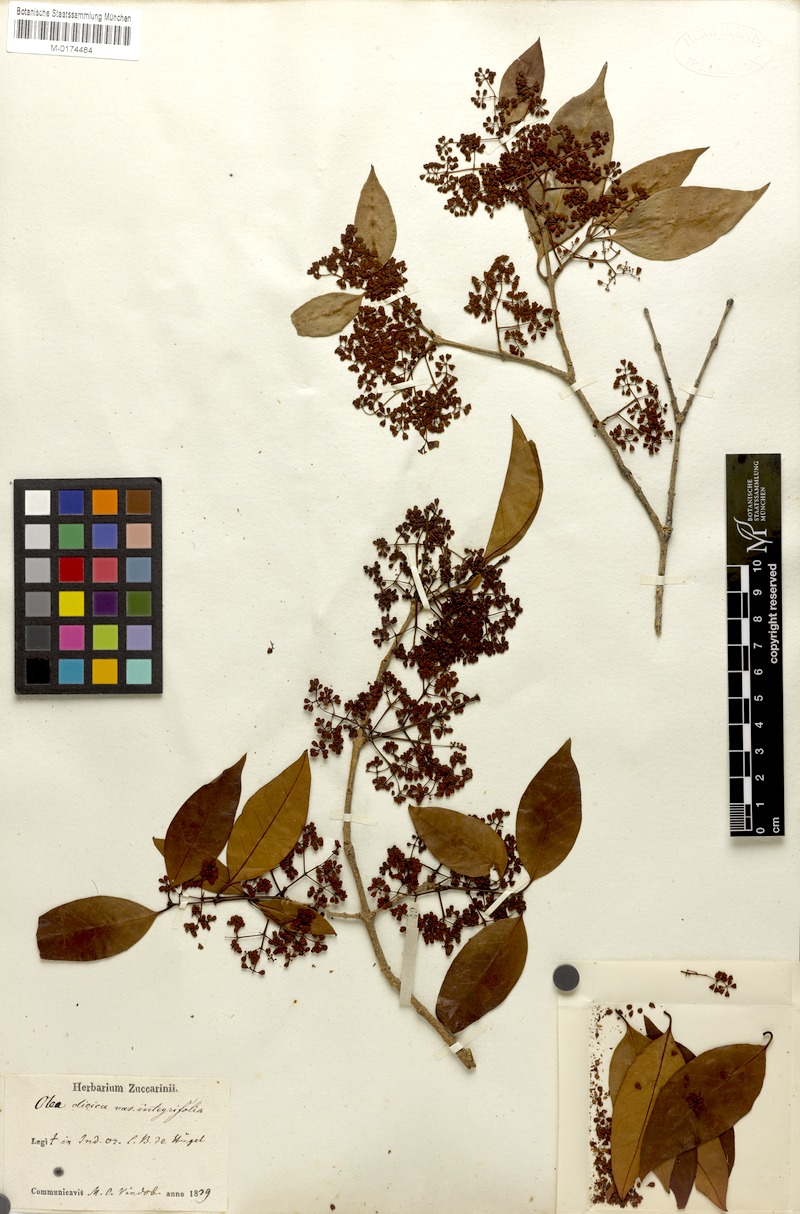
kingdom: Plantae
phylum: Tracheophyta
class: Magnoliopsida
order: Lamiales
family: Oleaceae
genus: Tetrapilus
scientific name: Tetrapilus dioicus
